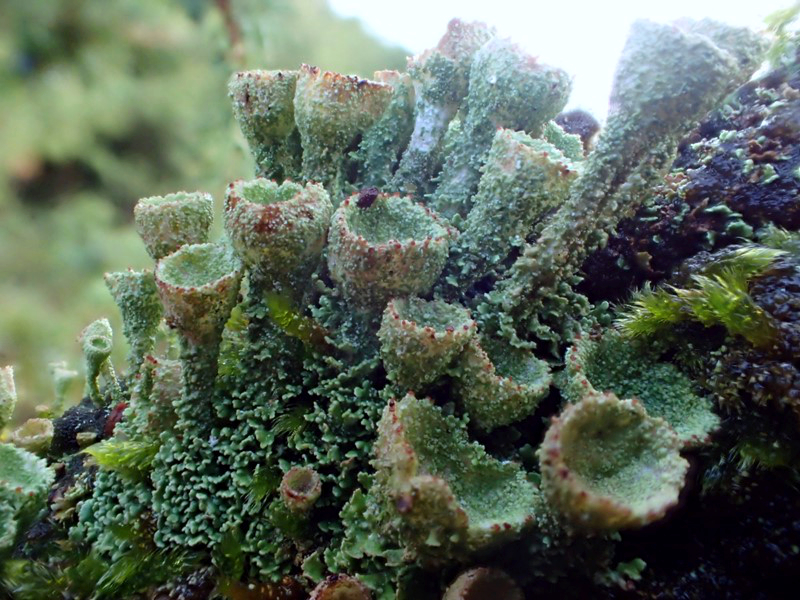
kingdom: Fungi
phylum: Ascomycota
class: Lecanoromycetes
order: Lecanorales
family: Cladoniaceae
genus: Cladonia
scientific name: Cladonia
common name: brungrøn bægerlav
